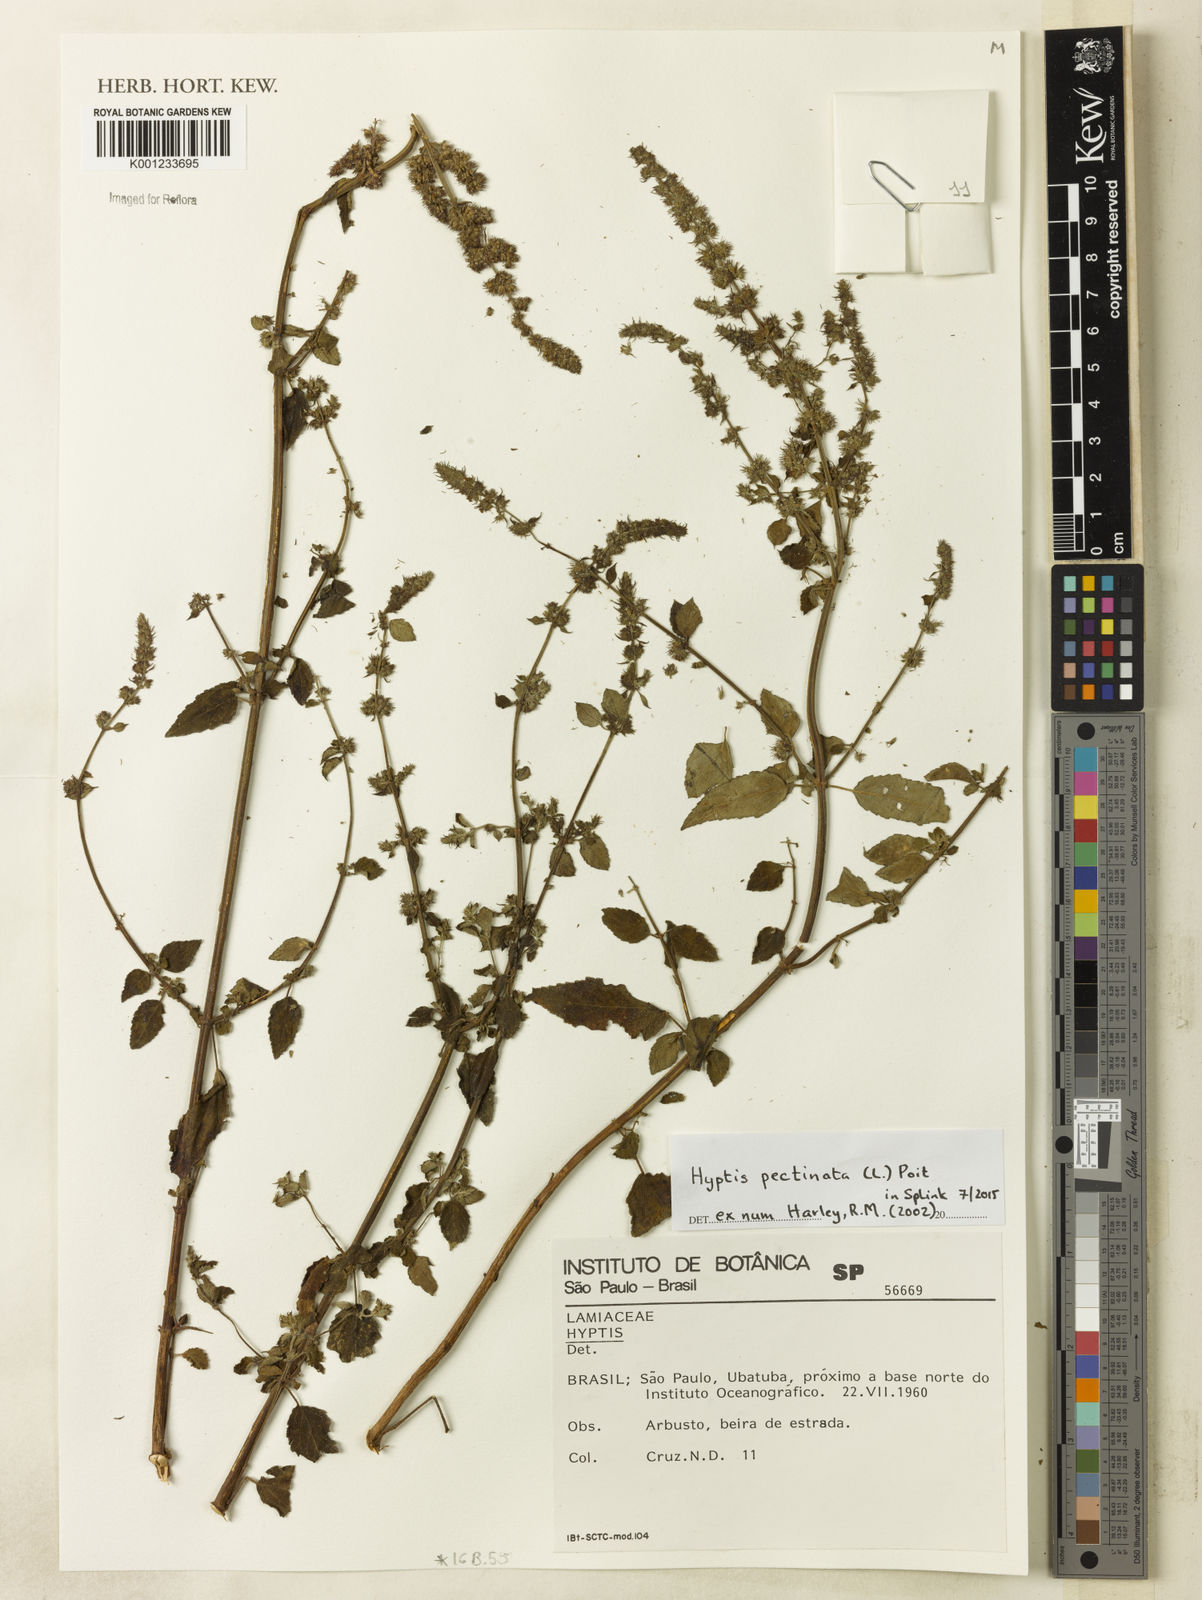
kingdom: Plantae
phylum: Tracheophyta
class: Magnoliopsida
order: Lamiales
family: Lamiaceae
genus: Mesosphaerum
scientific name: Mesosphaerum pectinatum
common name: Comb hyptis
